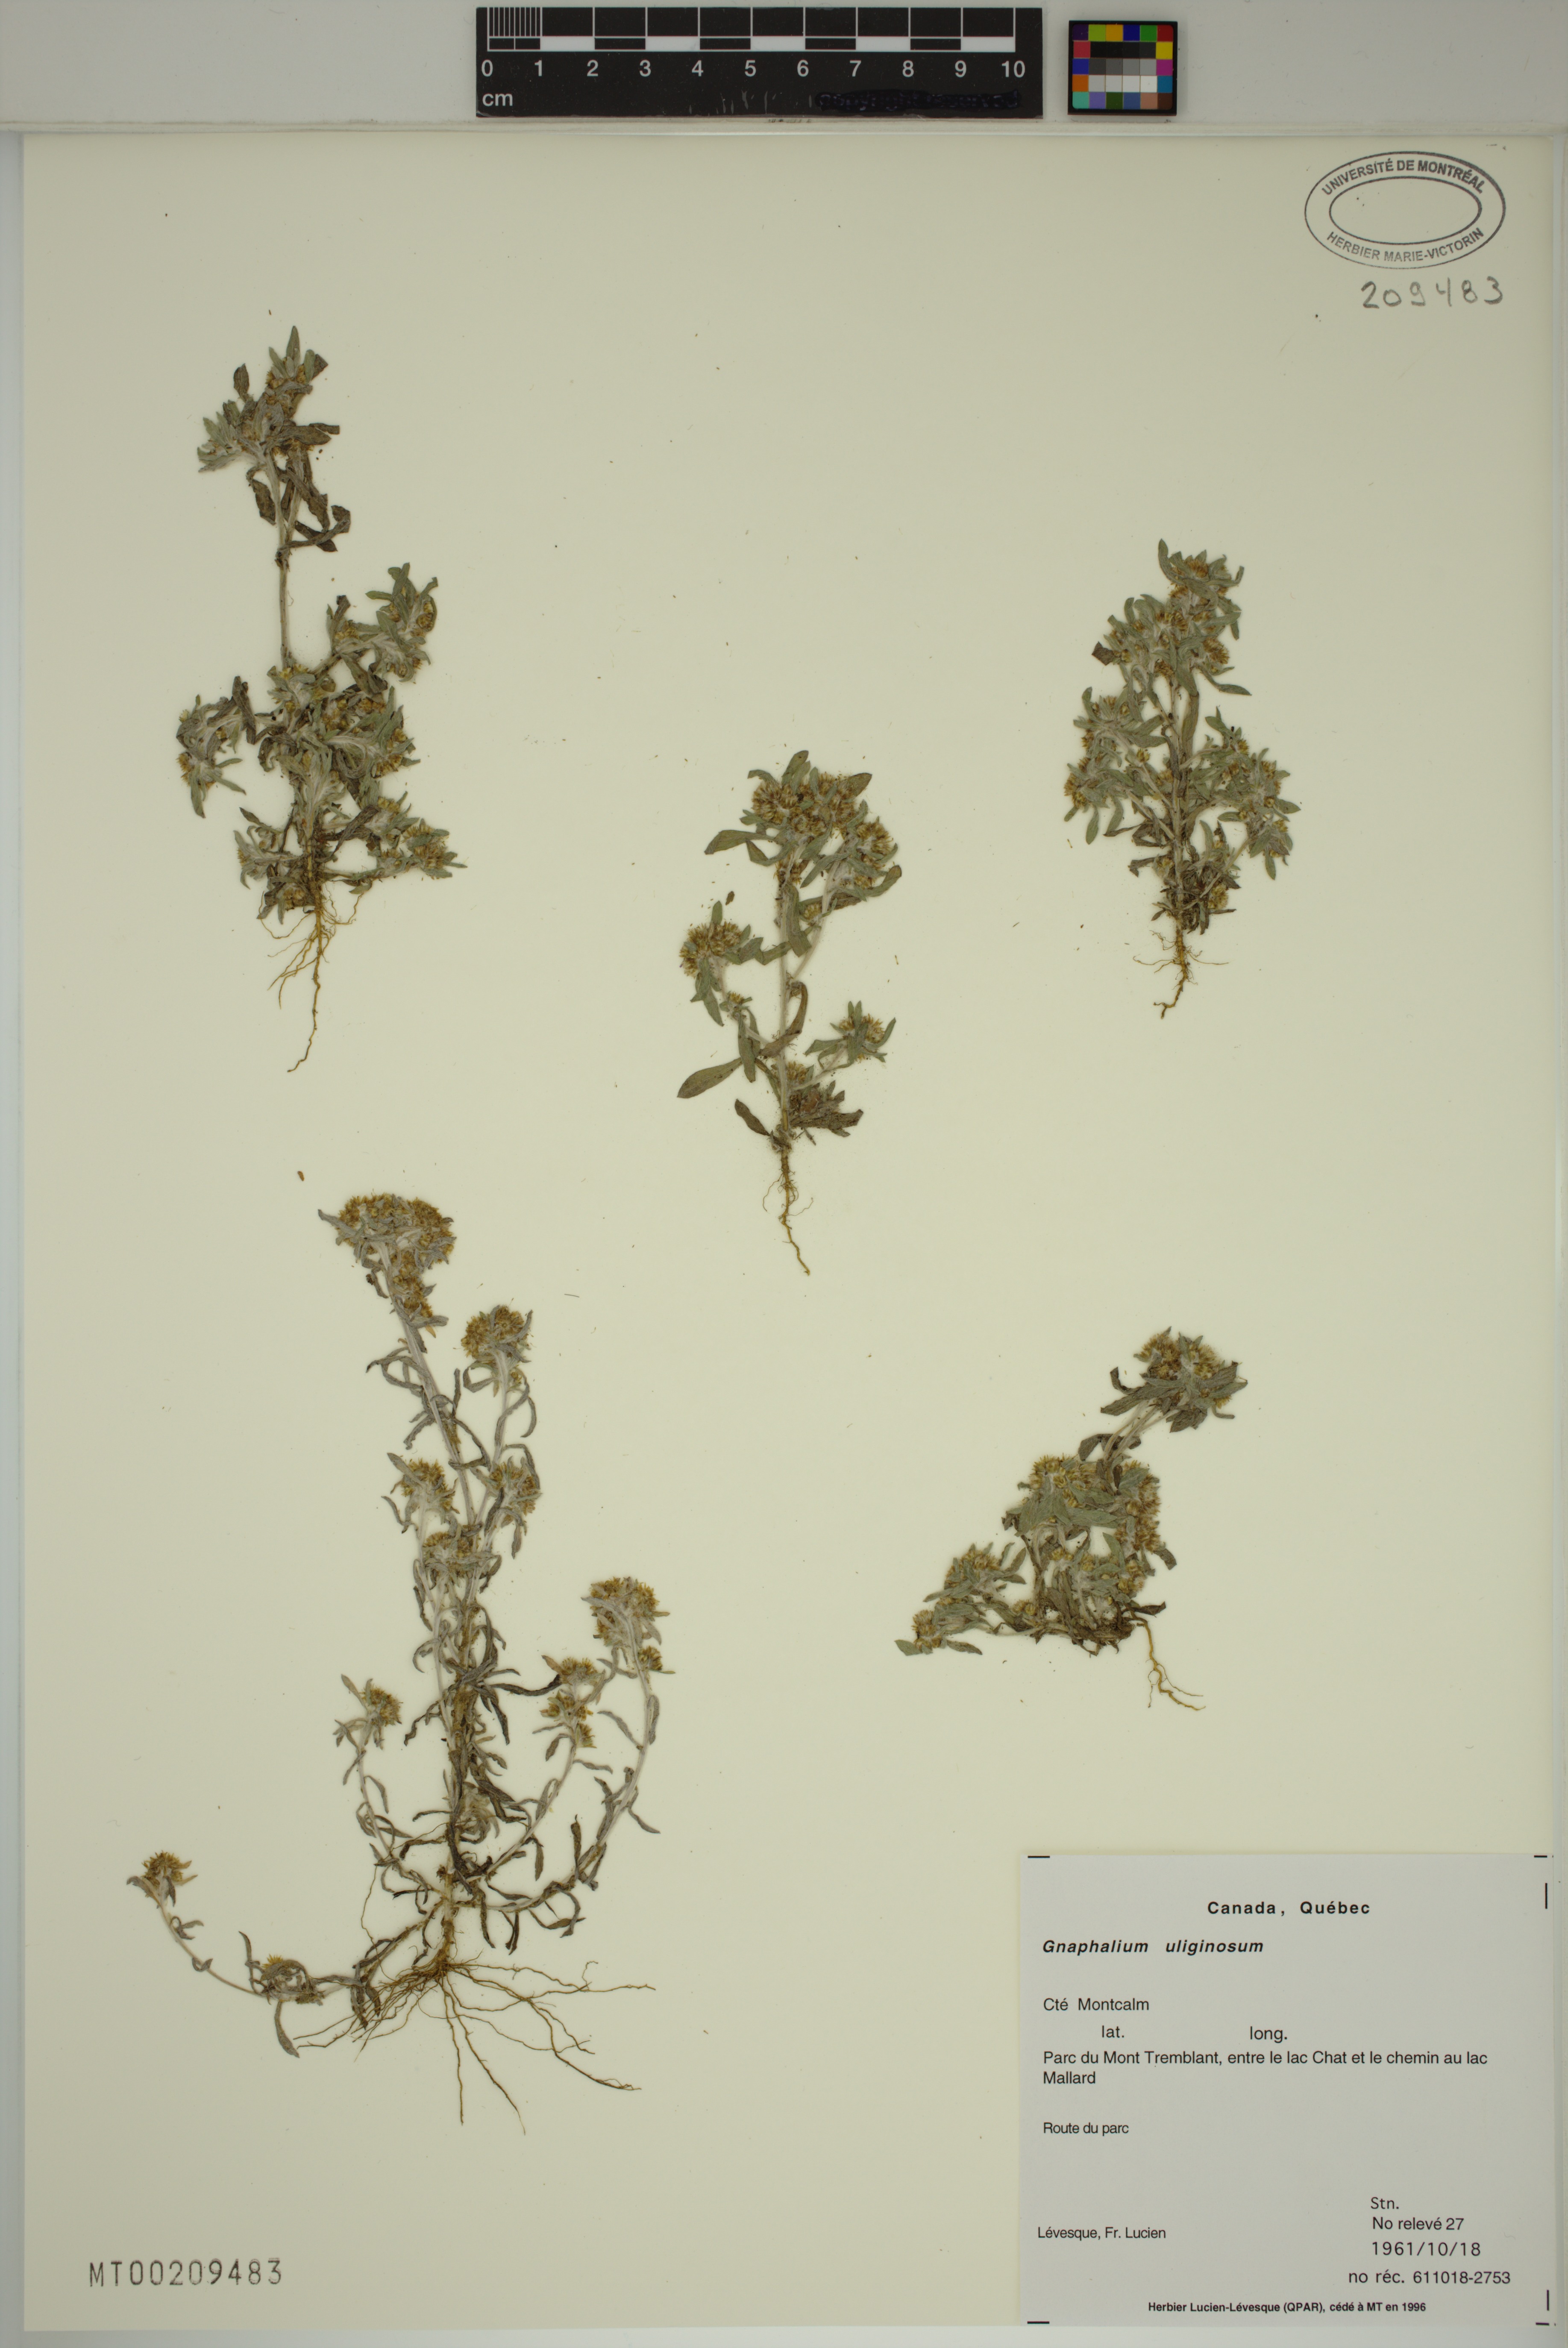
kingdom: Plantae
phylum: Tracheophyta
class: Magnoliopsida
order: Asterales
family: Asteraceae
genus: Gnaphalium
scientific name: Gnaphalium uliginosum
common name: Marsh cudweed
